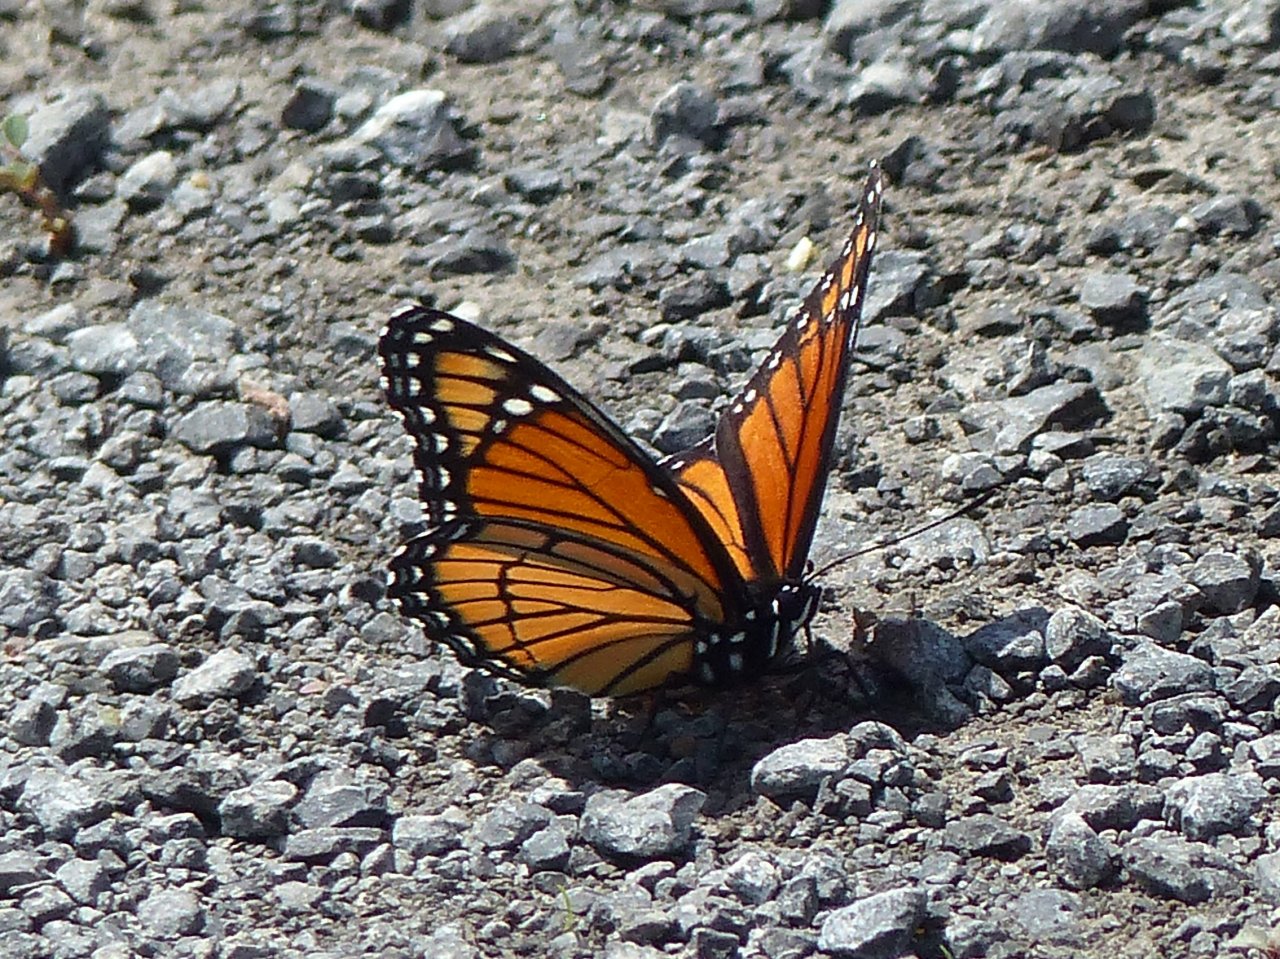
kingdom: Animalia
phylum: Arthropoda
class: Insecta
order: Lepidoptera
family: Nymphalidae
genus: Limenitis
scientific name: Limenitis archippus
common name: Viceroy
